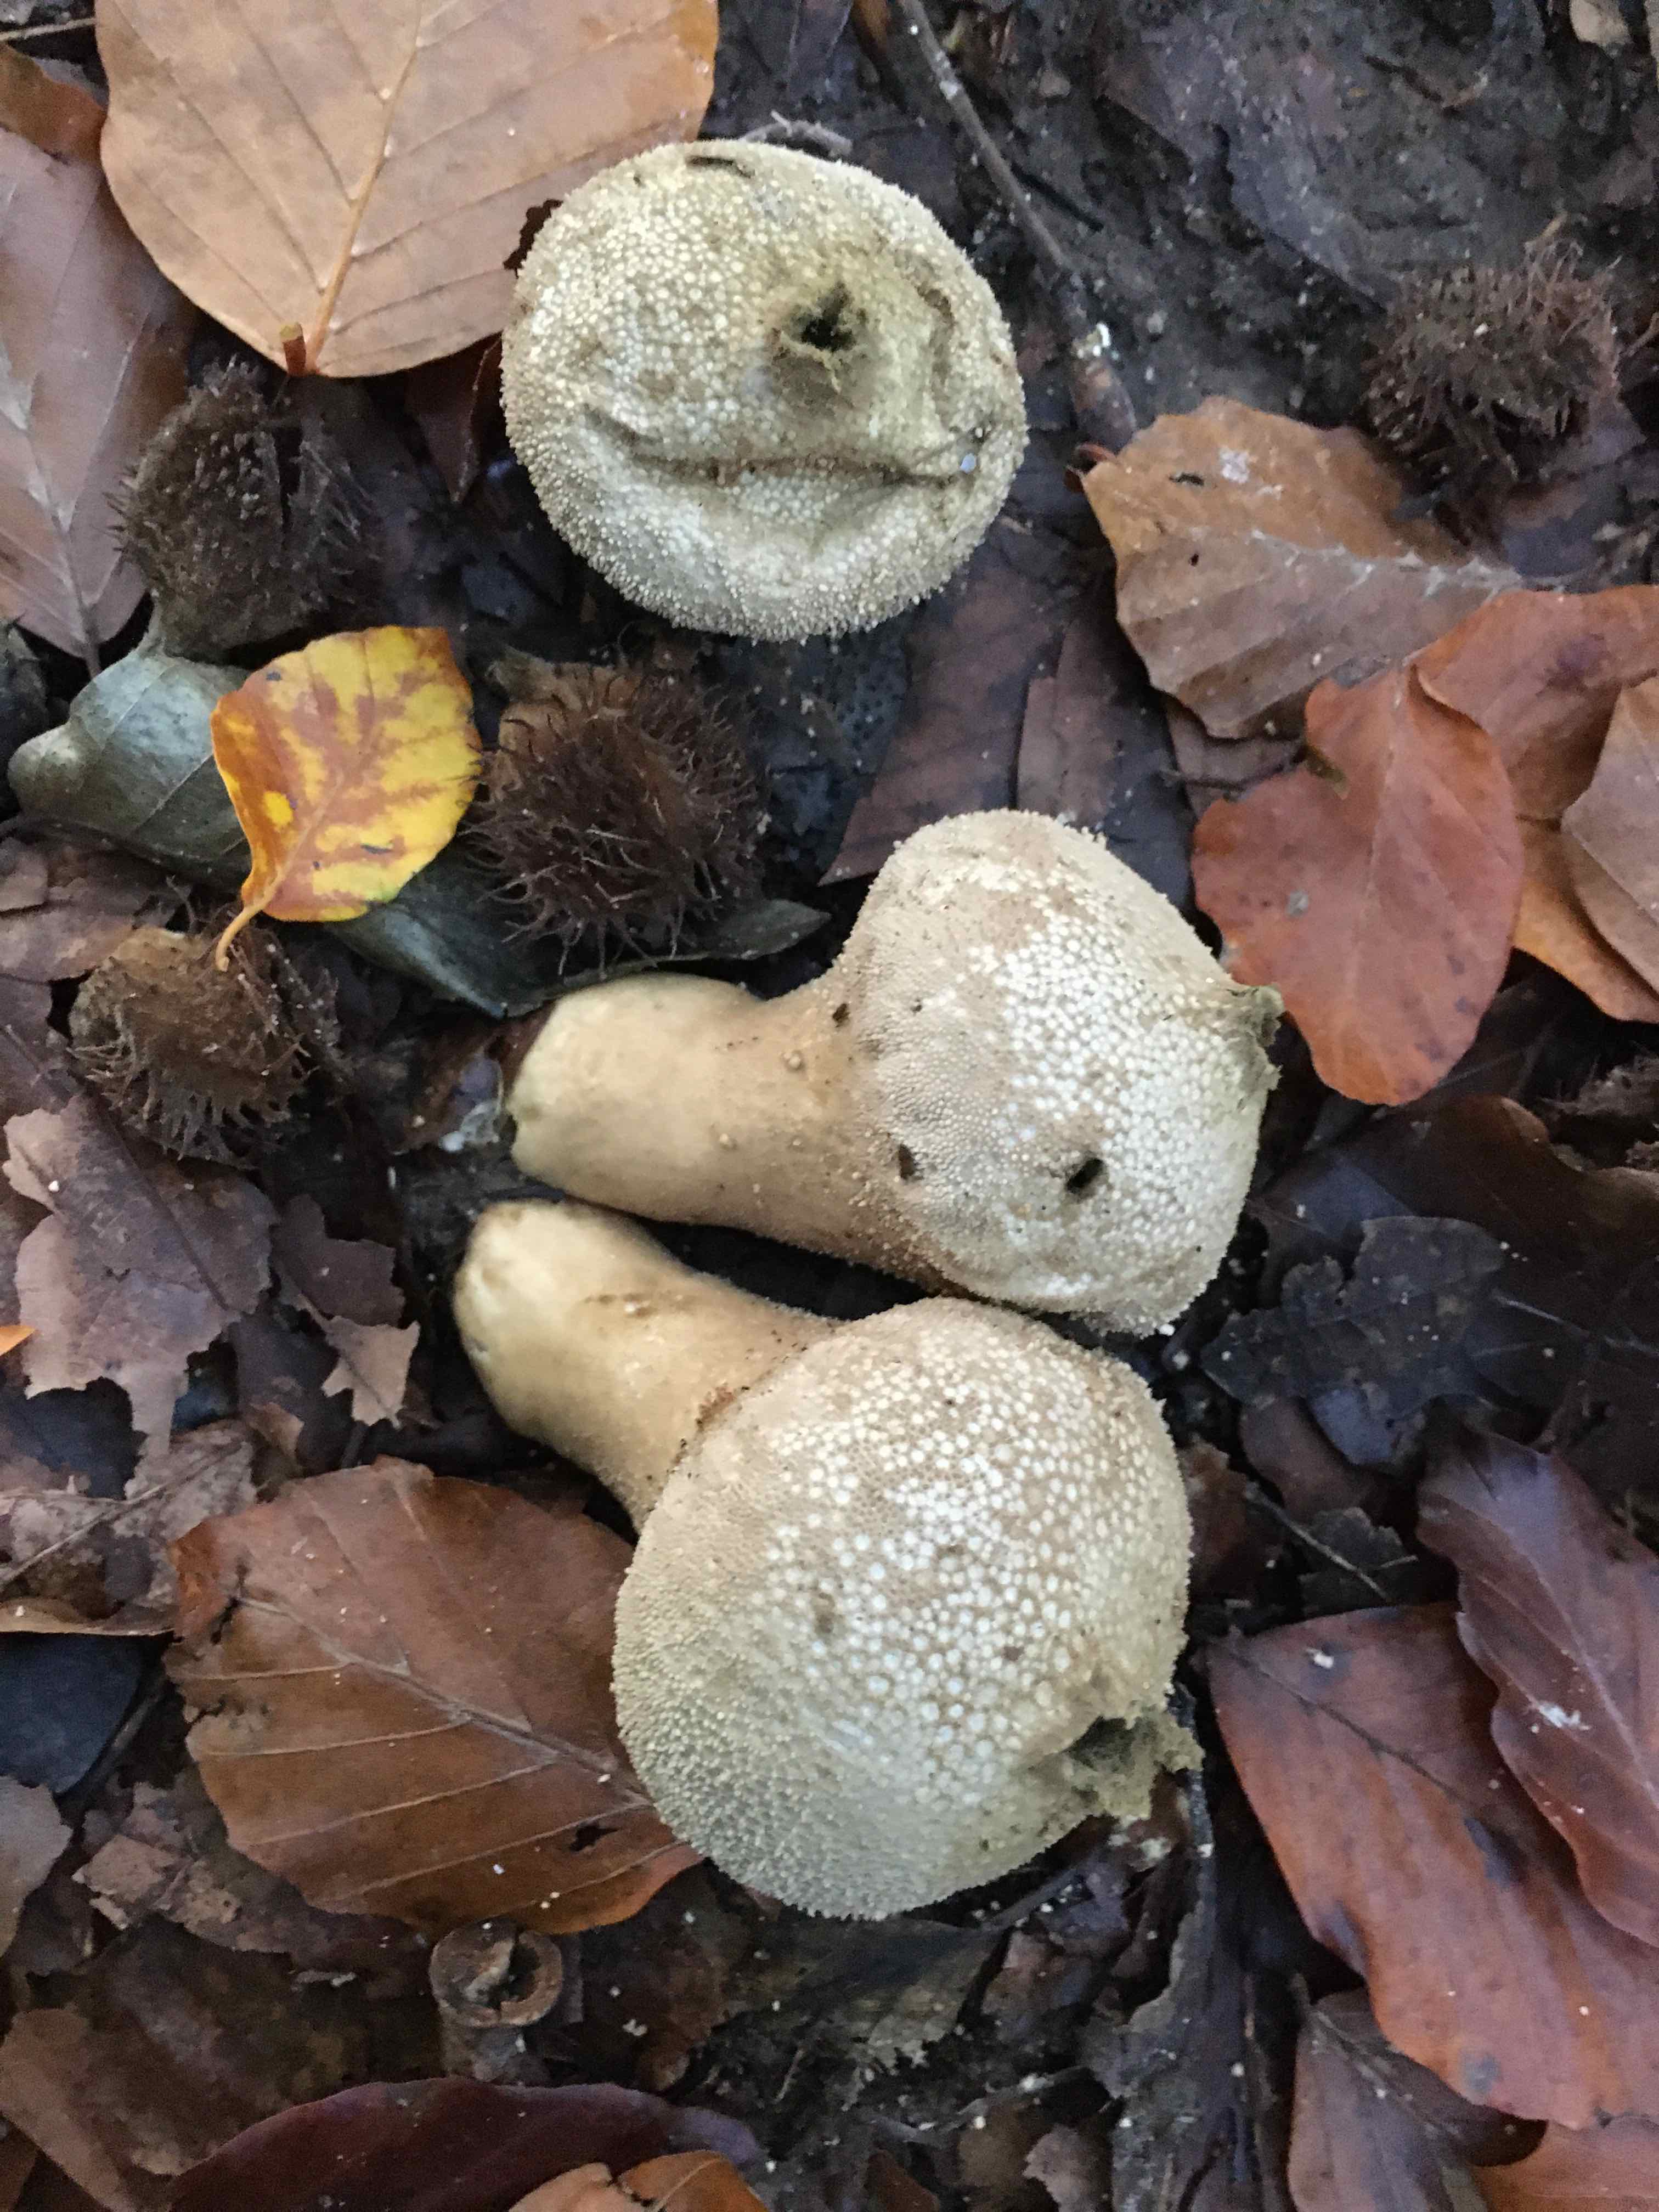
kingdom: Fungi
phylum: Basidiomycota
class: Agaricomycetes
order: Agaricales
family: Lycoperdaceae
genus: Lycoperdon
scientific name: Lycoperdon perlatum
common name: krystal-støvbold
